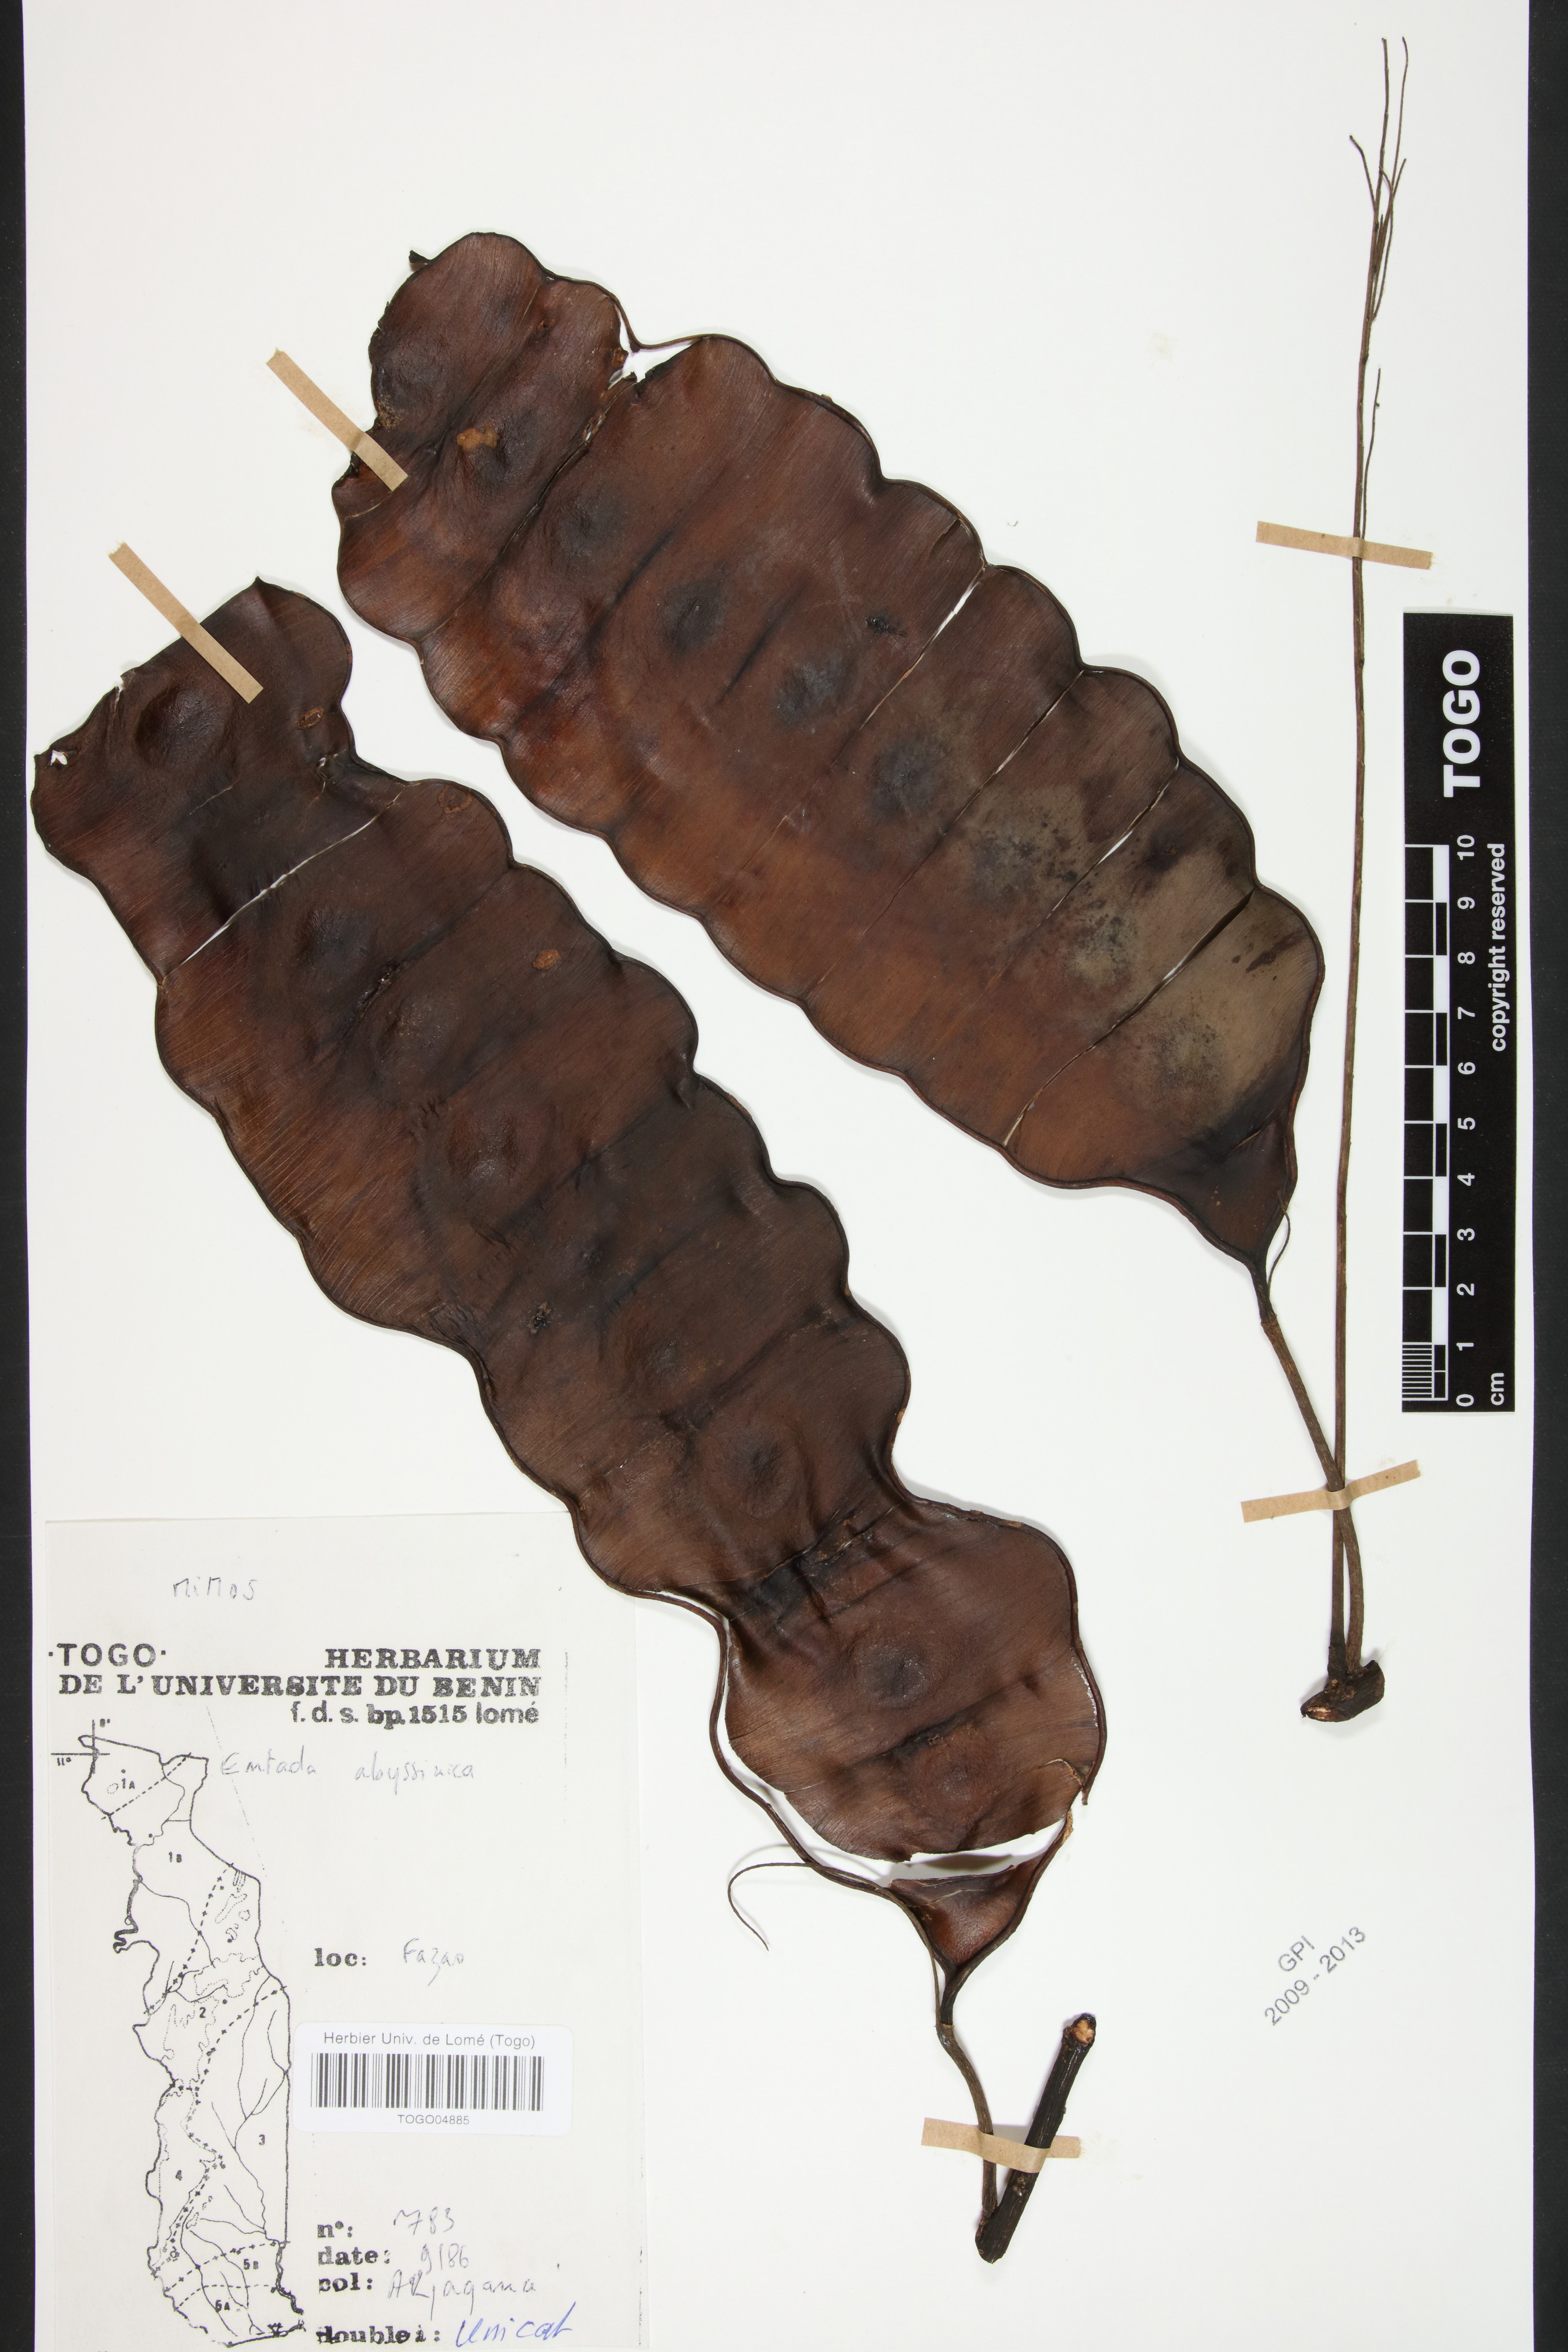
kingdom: Plantae
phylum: Tracheophyta
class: Magnoliopsida
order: Fabales
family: Fabaceae
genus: Entada
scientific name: Entada abyssinica
